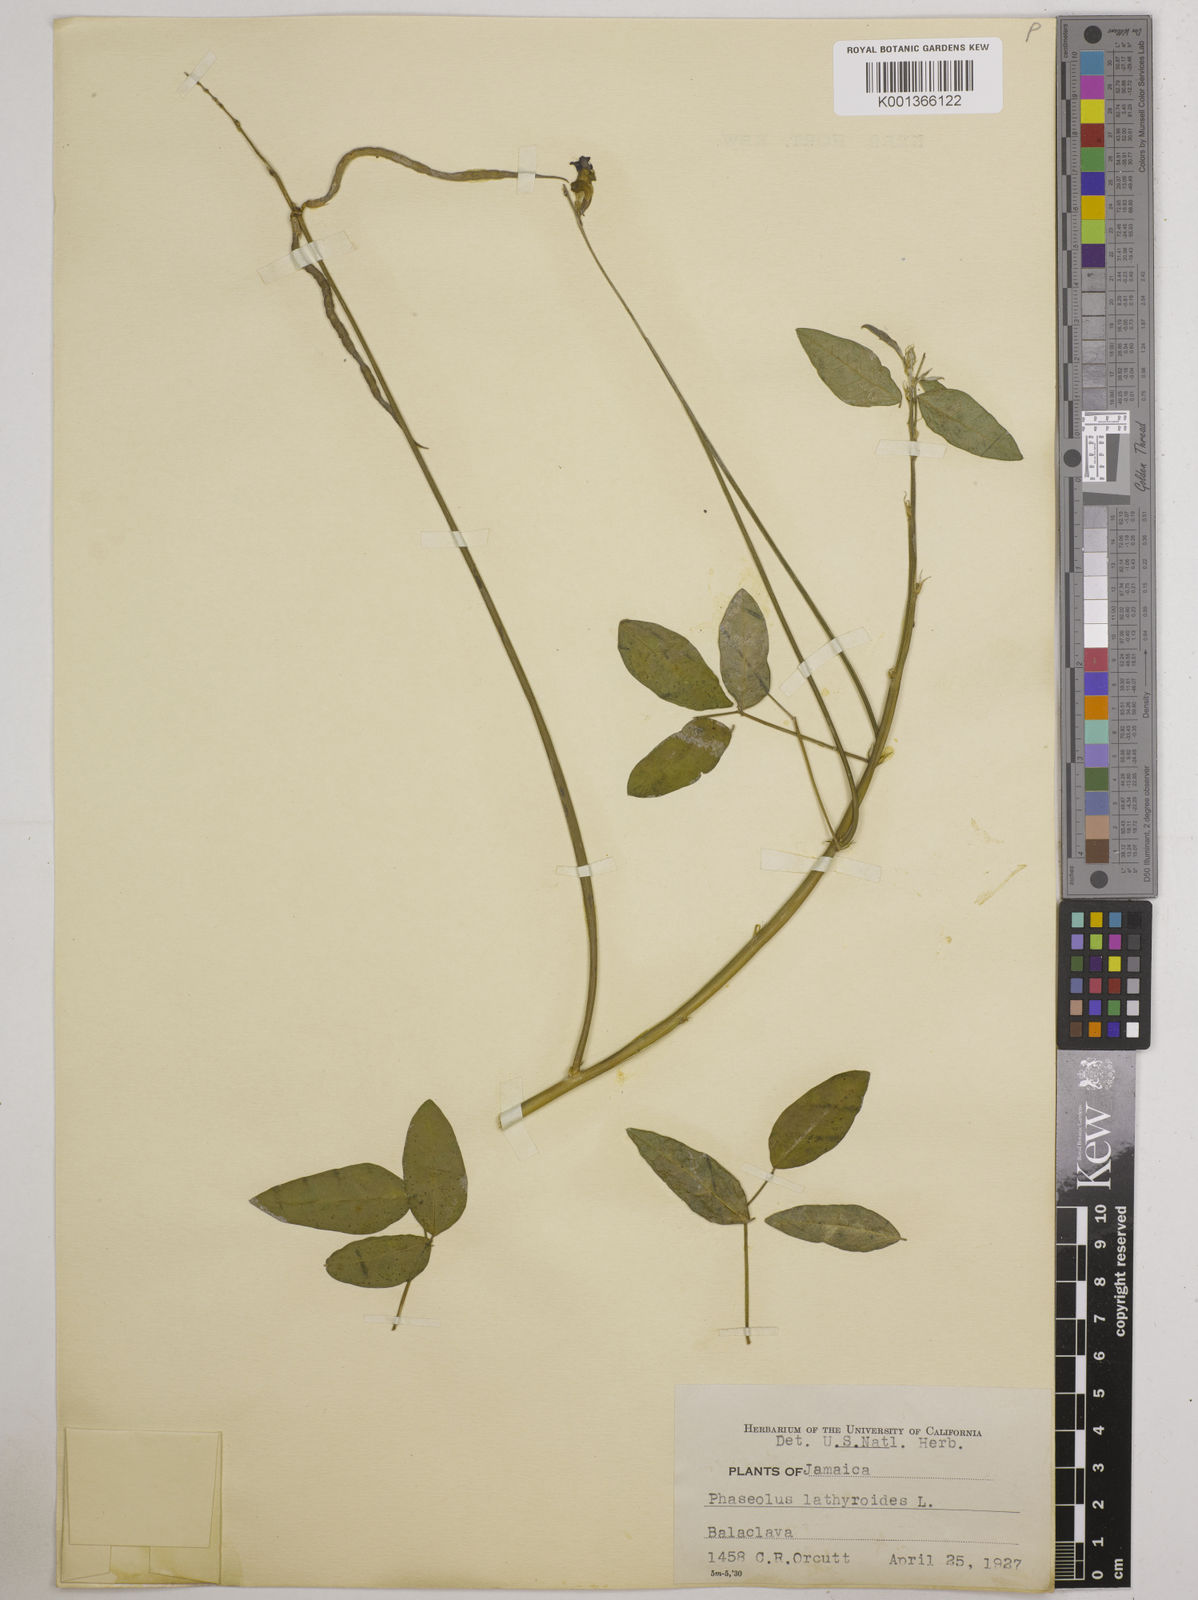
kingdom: Plantae
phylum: Tracheophyta
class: Magnoliopsida
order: Fabales
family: Fabaceae
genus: Macroptilium
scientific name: Macroptilium lathyroides
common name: Wild bushbean
